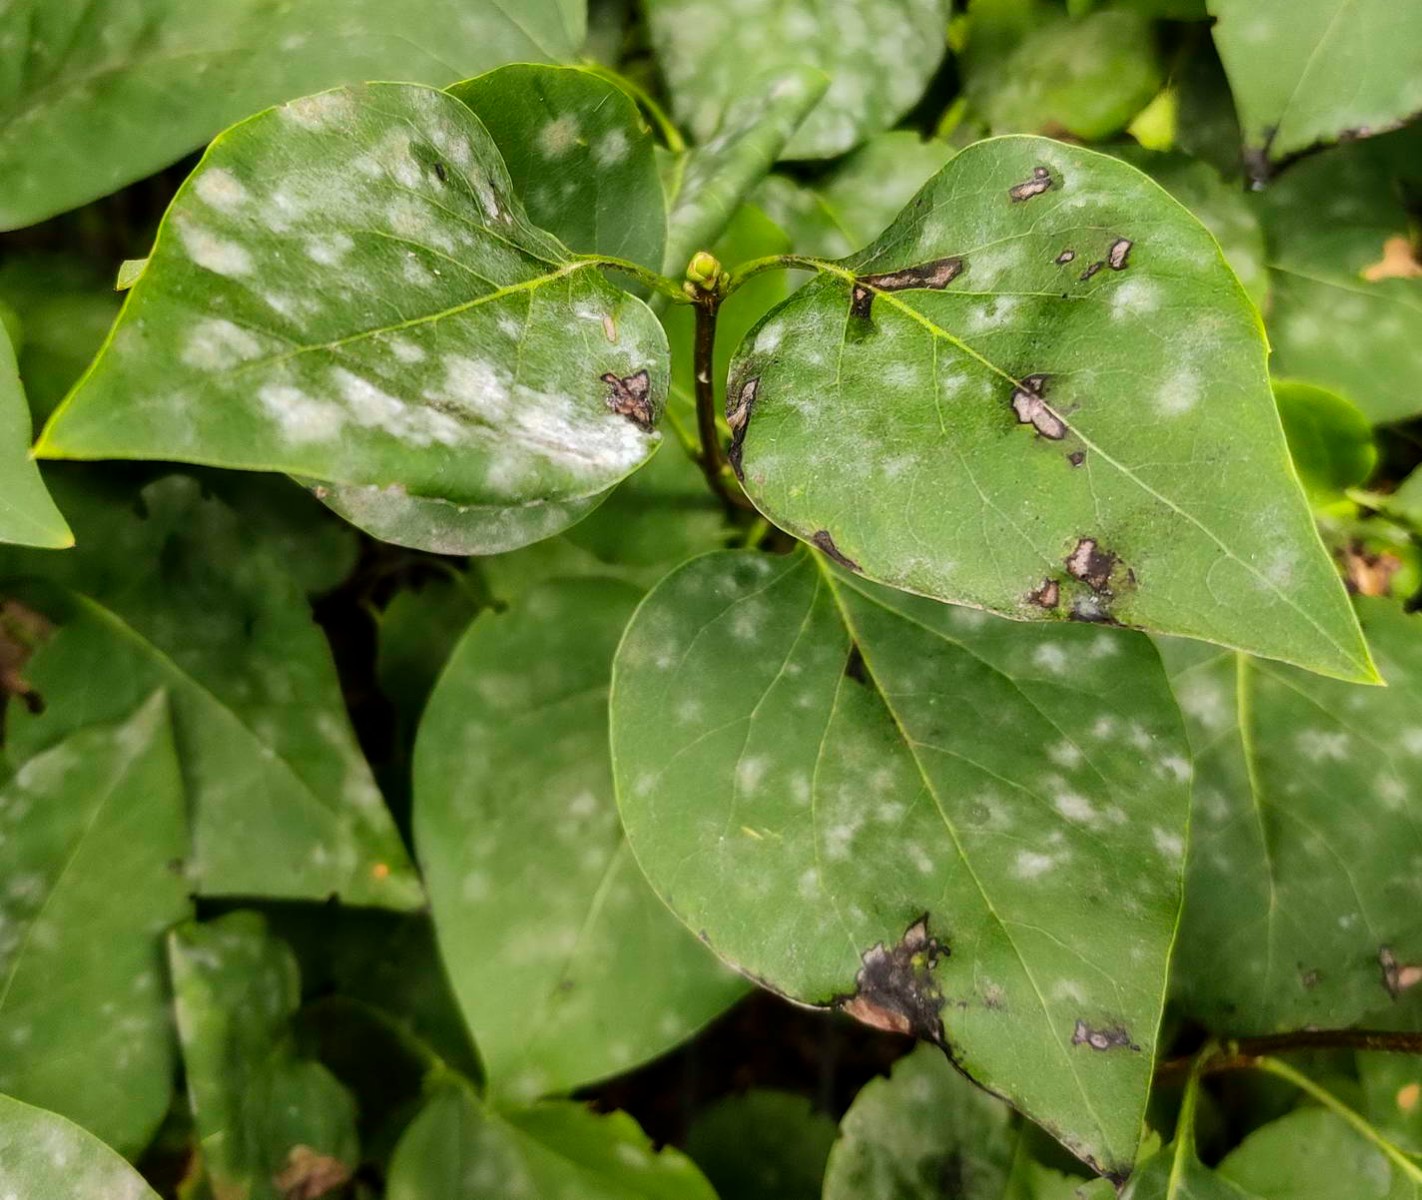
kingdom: Fungi
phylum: Ascomycota
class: Leotiomycetes
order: Helotiales
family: Erysiphaceae
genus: Erysiphe
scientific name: Erysiphe syringae-japonicae
